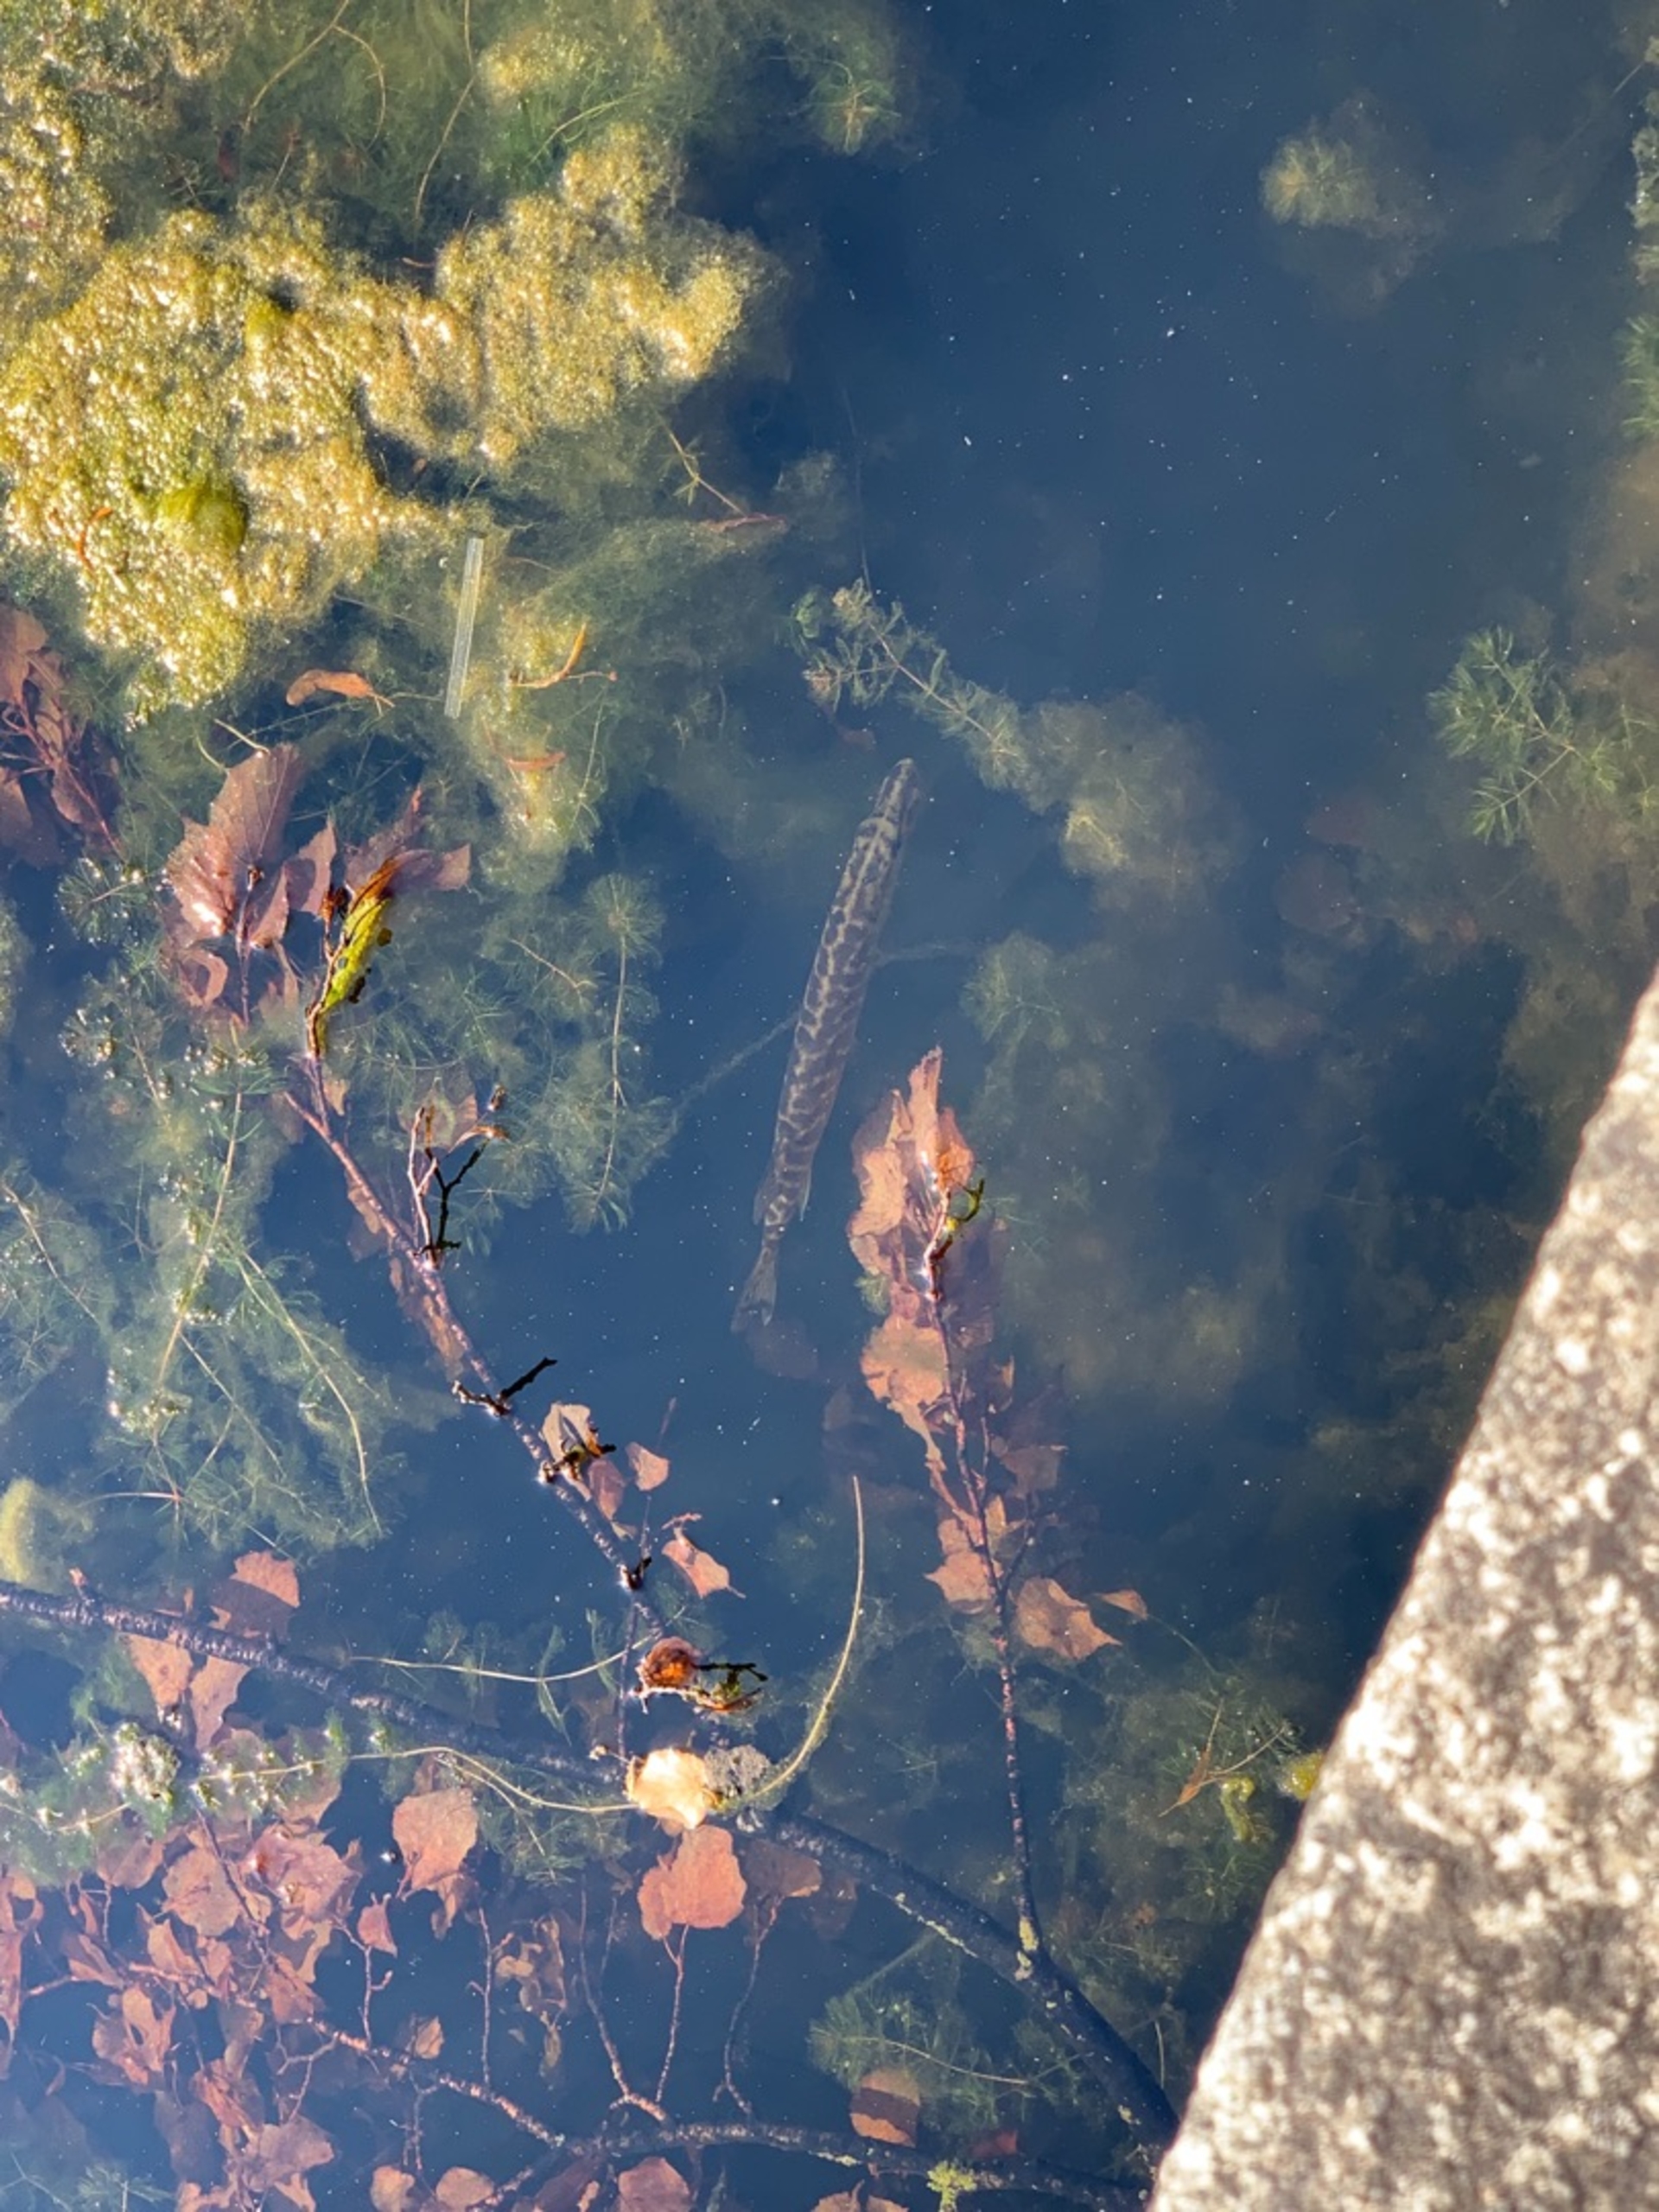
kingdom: Animalia
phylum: Chordata
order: Esociformes
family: Esocidae
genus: Esox
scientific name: Esox lucius
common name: Gedde
